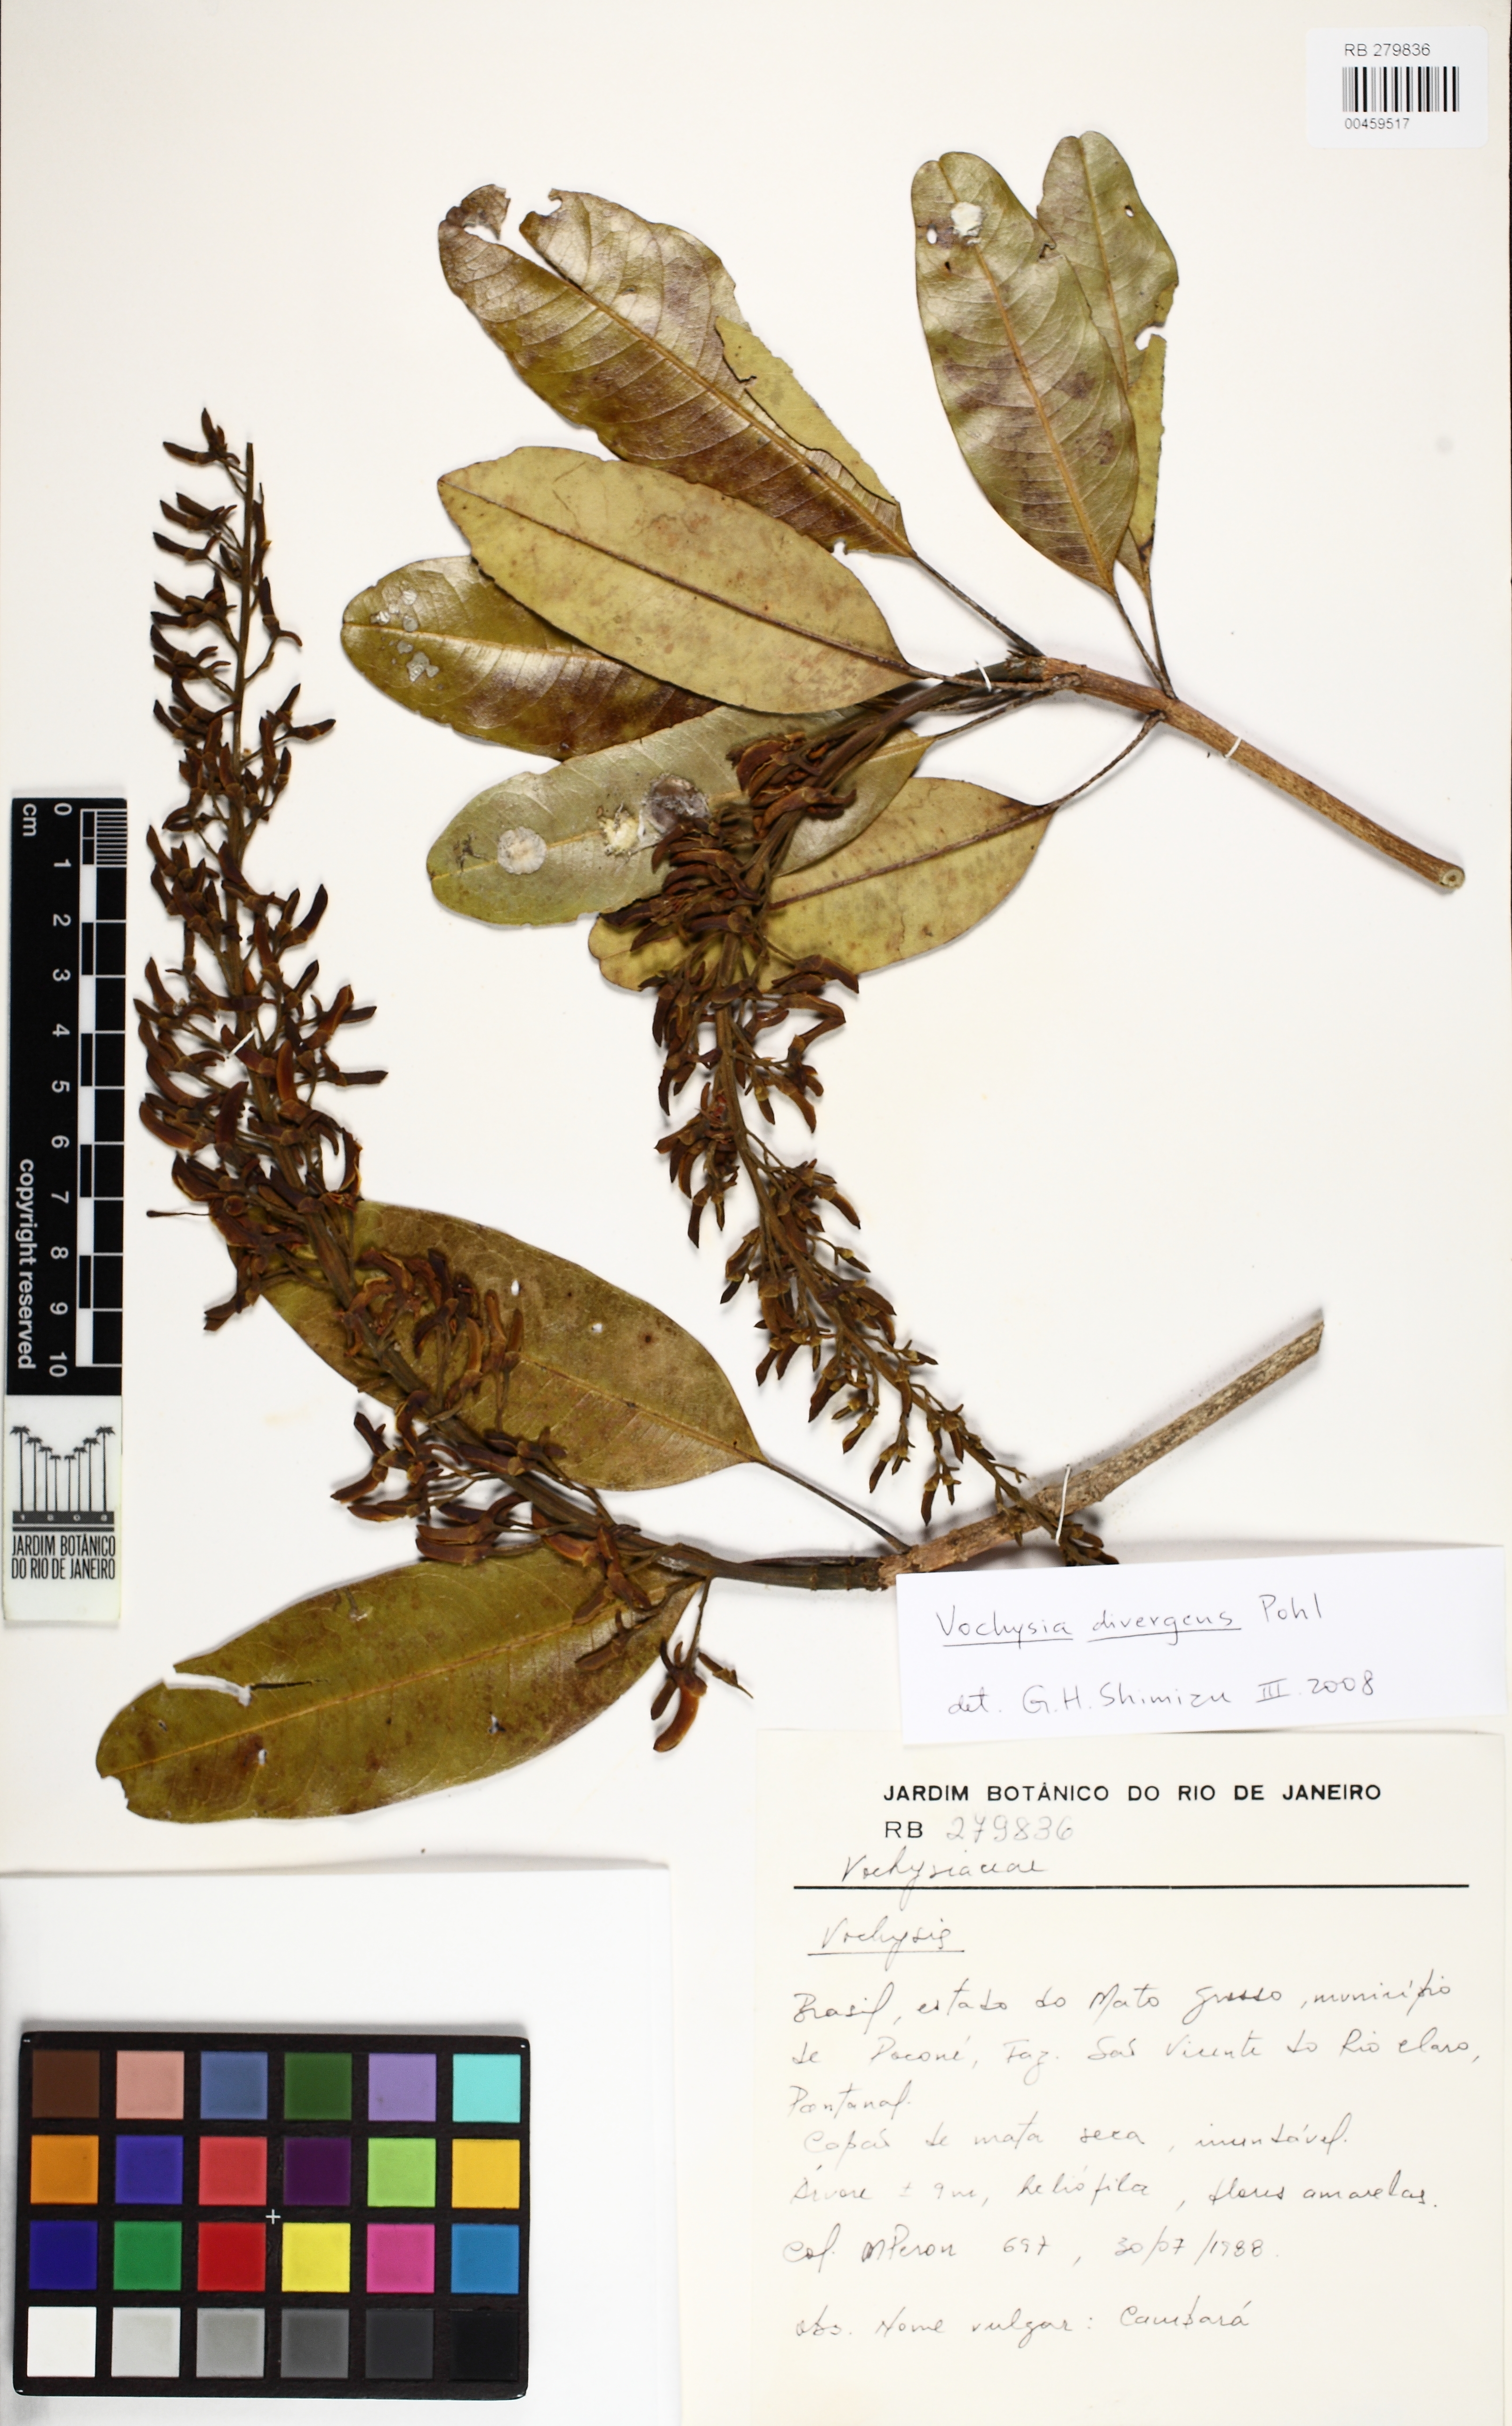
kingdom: Plantae
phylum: Tracheophyta
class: Magnoliopsida
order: Myrtales
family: Vochysiaceae
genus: Vochysia
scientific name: Vochysia divergens
